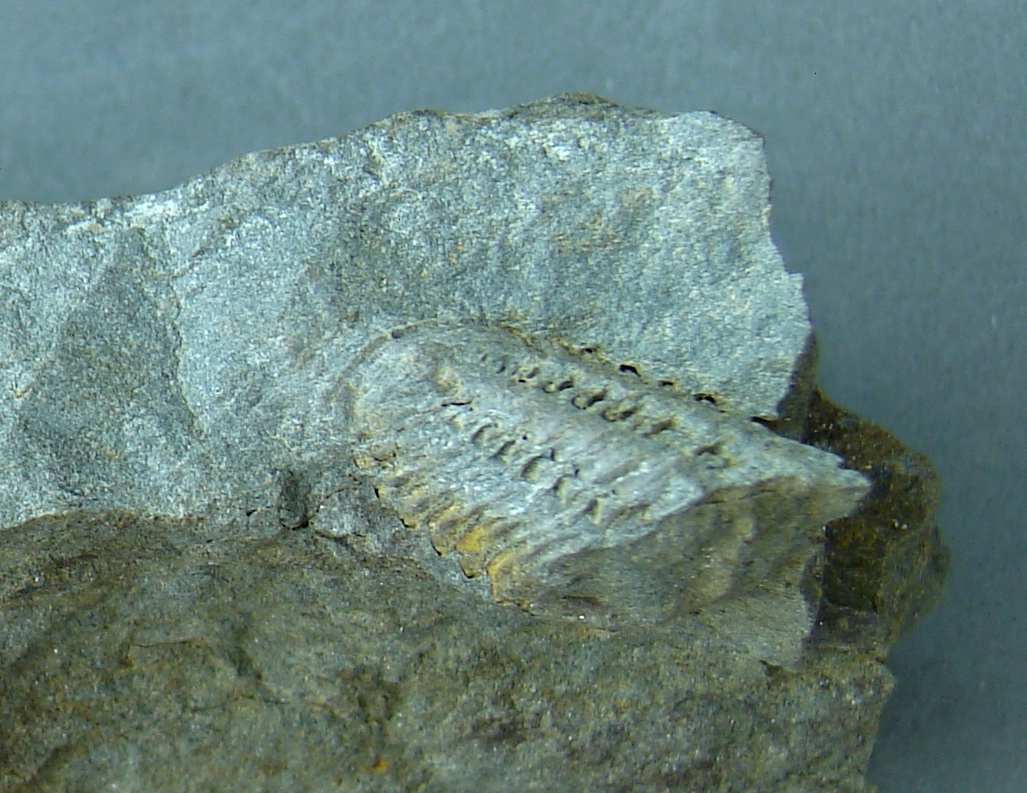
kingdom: Animalia
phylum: Arthropoda
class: Trilobita
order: Phacopida
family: Acastidae
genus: Acastoides
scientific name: Acastoides
